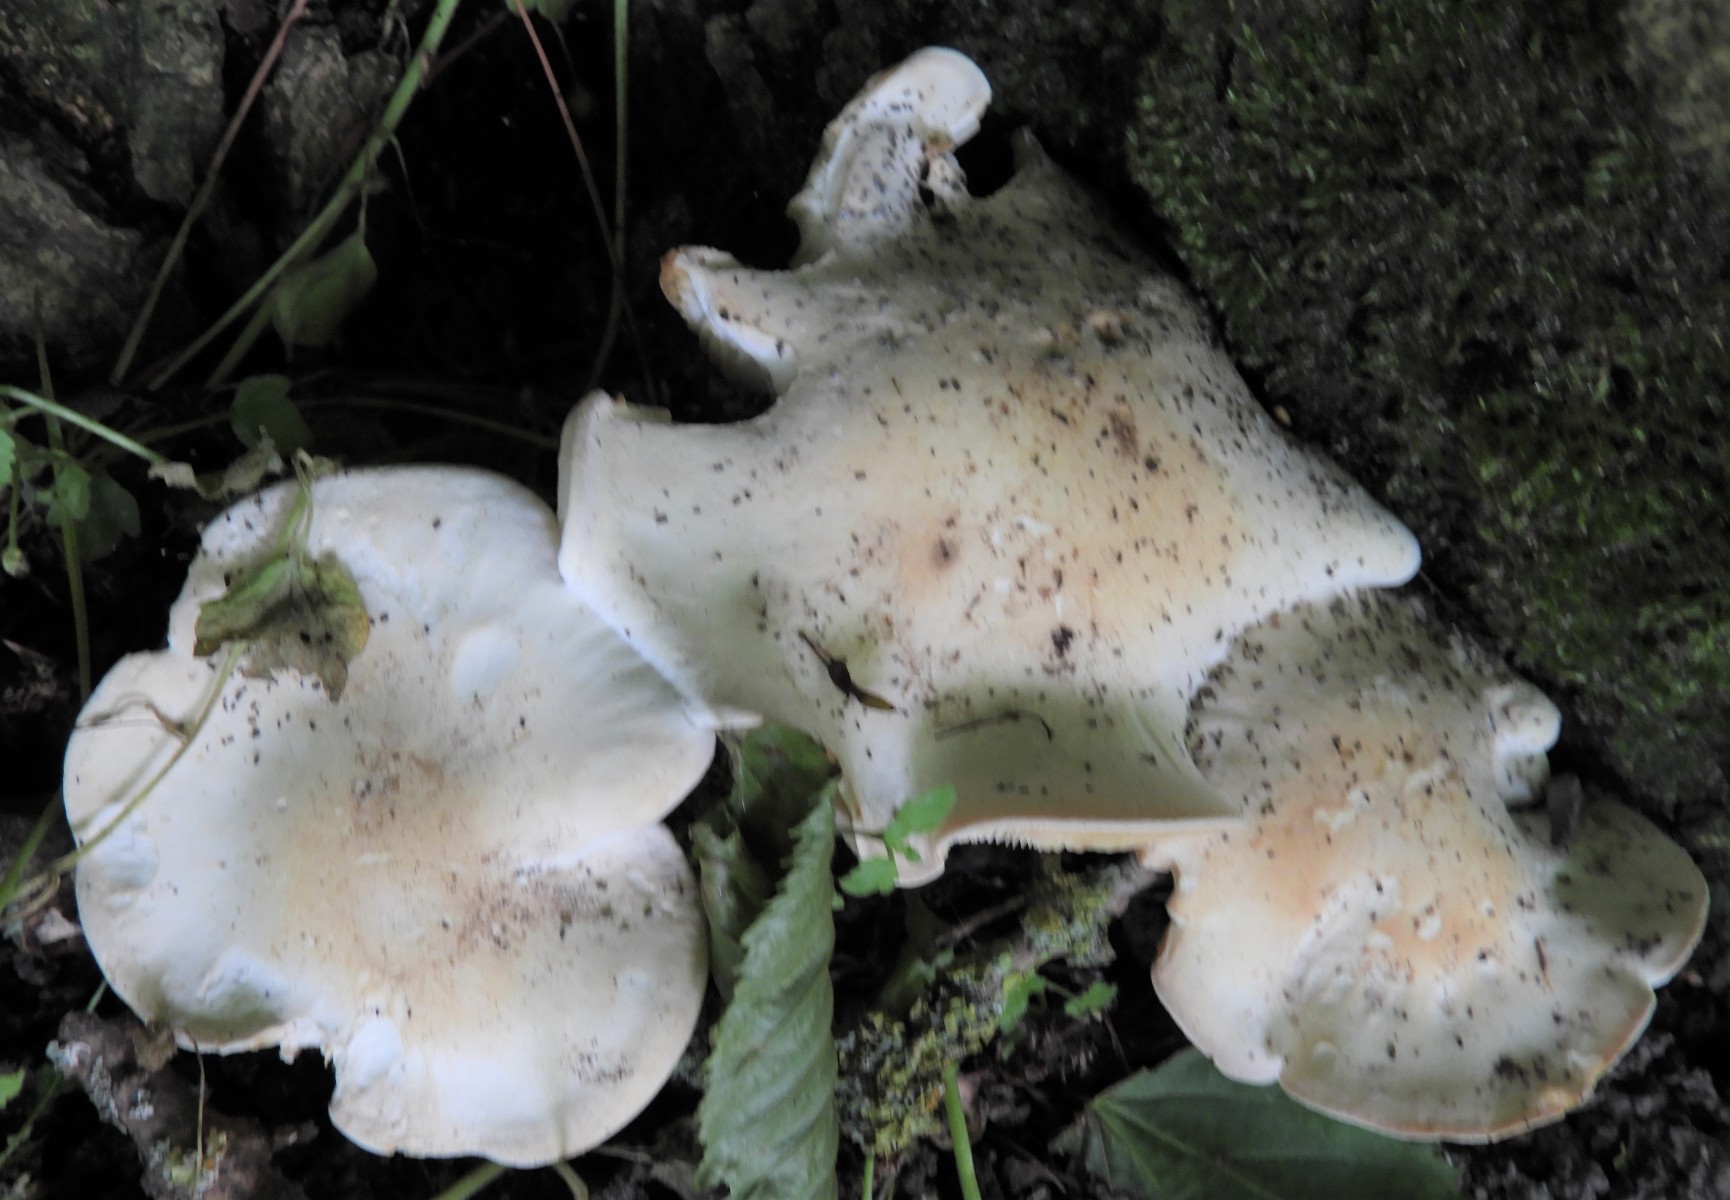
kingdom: Fungi
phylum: Basidiomycota
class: Agaricomycetes
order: Agaricales
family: Lyophyllaceae
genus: Calocybe
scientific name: Calocybe gambosa
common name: vårmusseron
